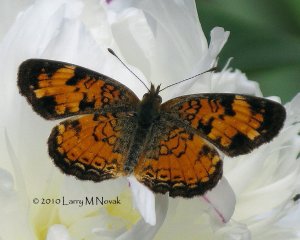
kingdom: Animalia
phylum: Arthropoda
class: Insecta
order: Lepidoptera
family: Nymphalidae
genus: Phyciodes
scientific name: Phyciodes tharos
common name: Pearl Crescent
